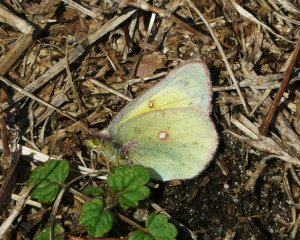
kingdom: Animalia
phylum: Arthropoda
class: Insecta
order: Lepidoptera
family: Pieridae
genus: Colias
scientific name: Colias eurytheme
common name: Orange Sulphur
